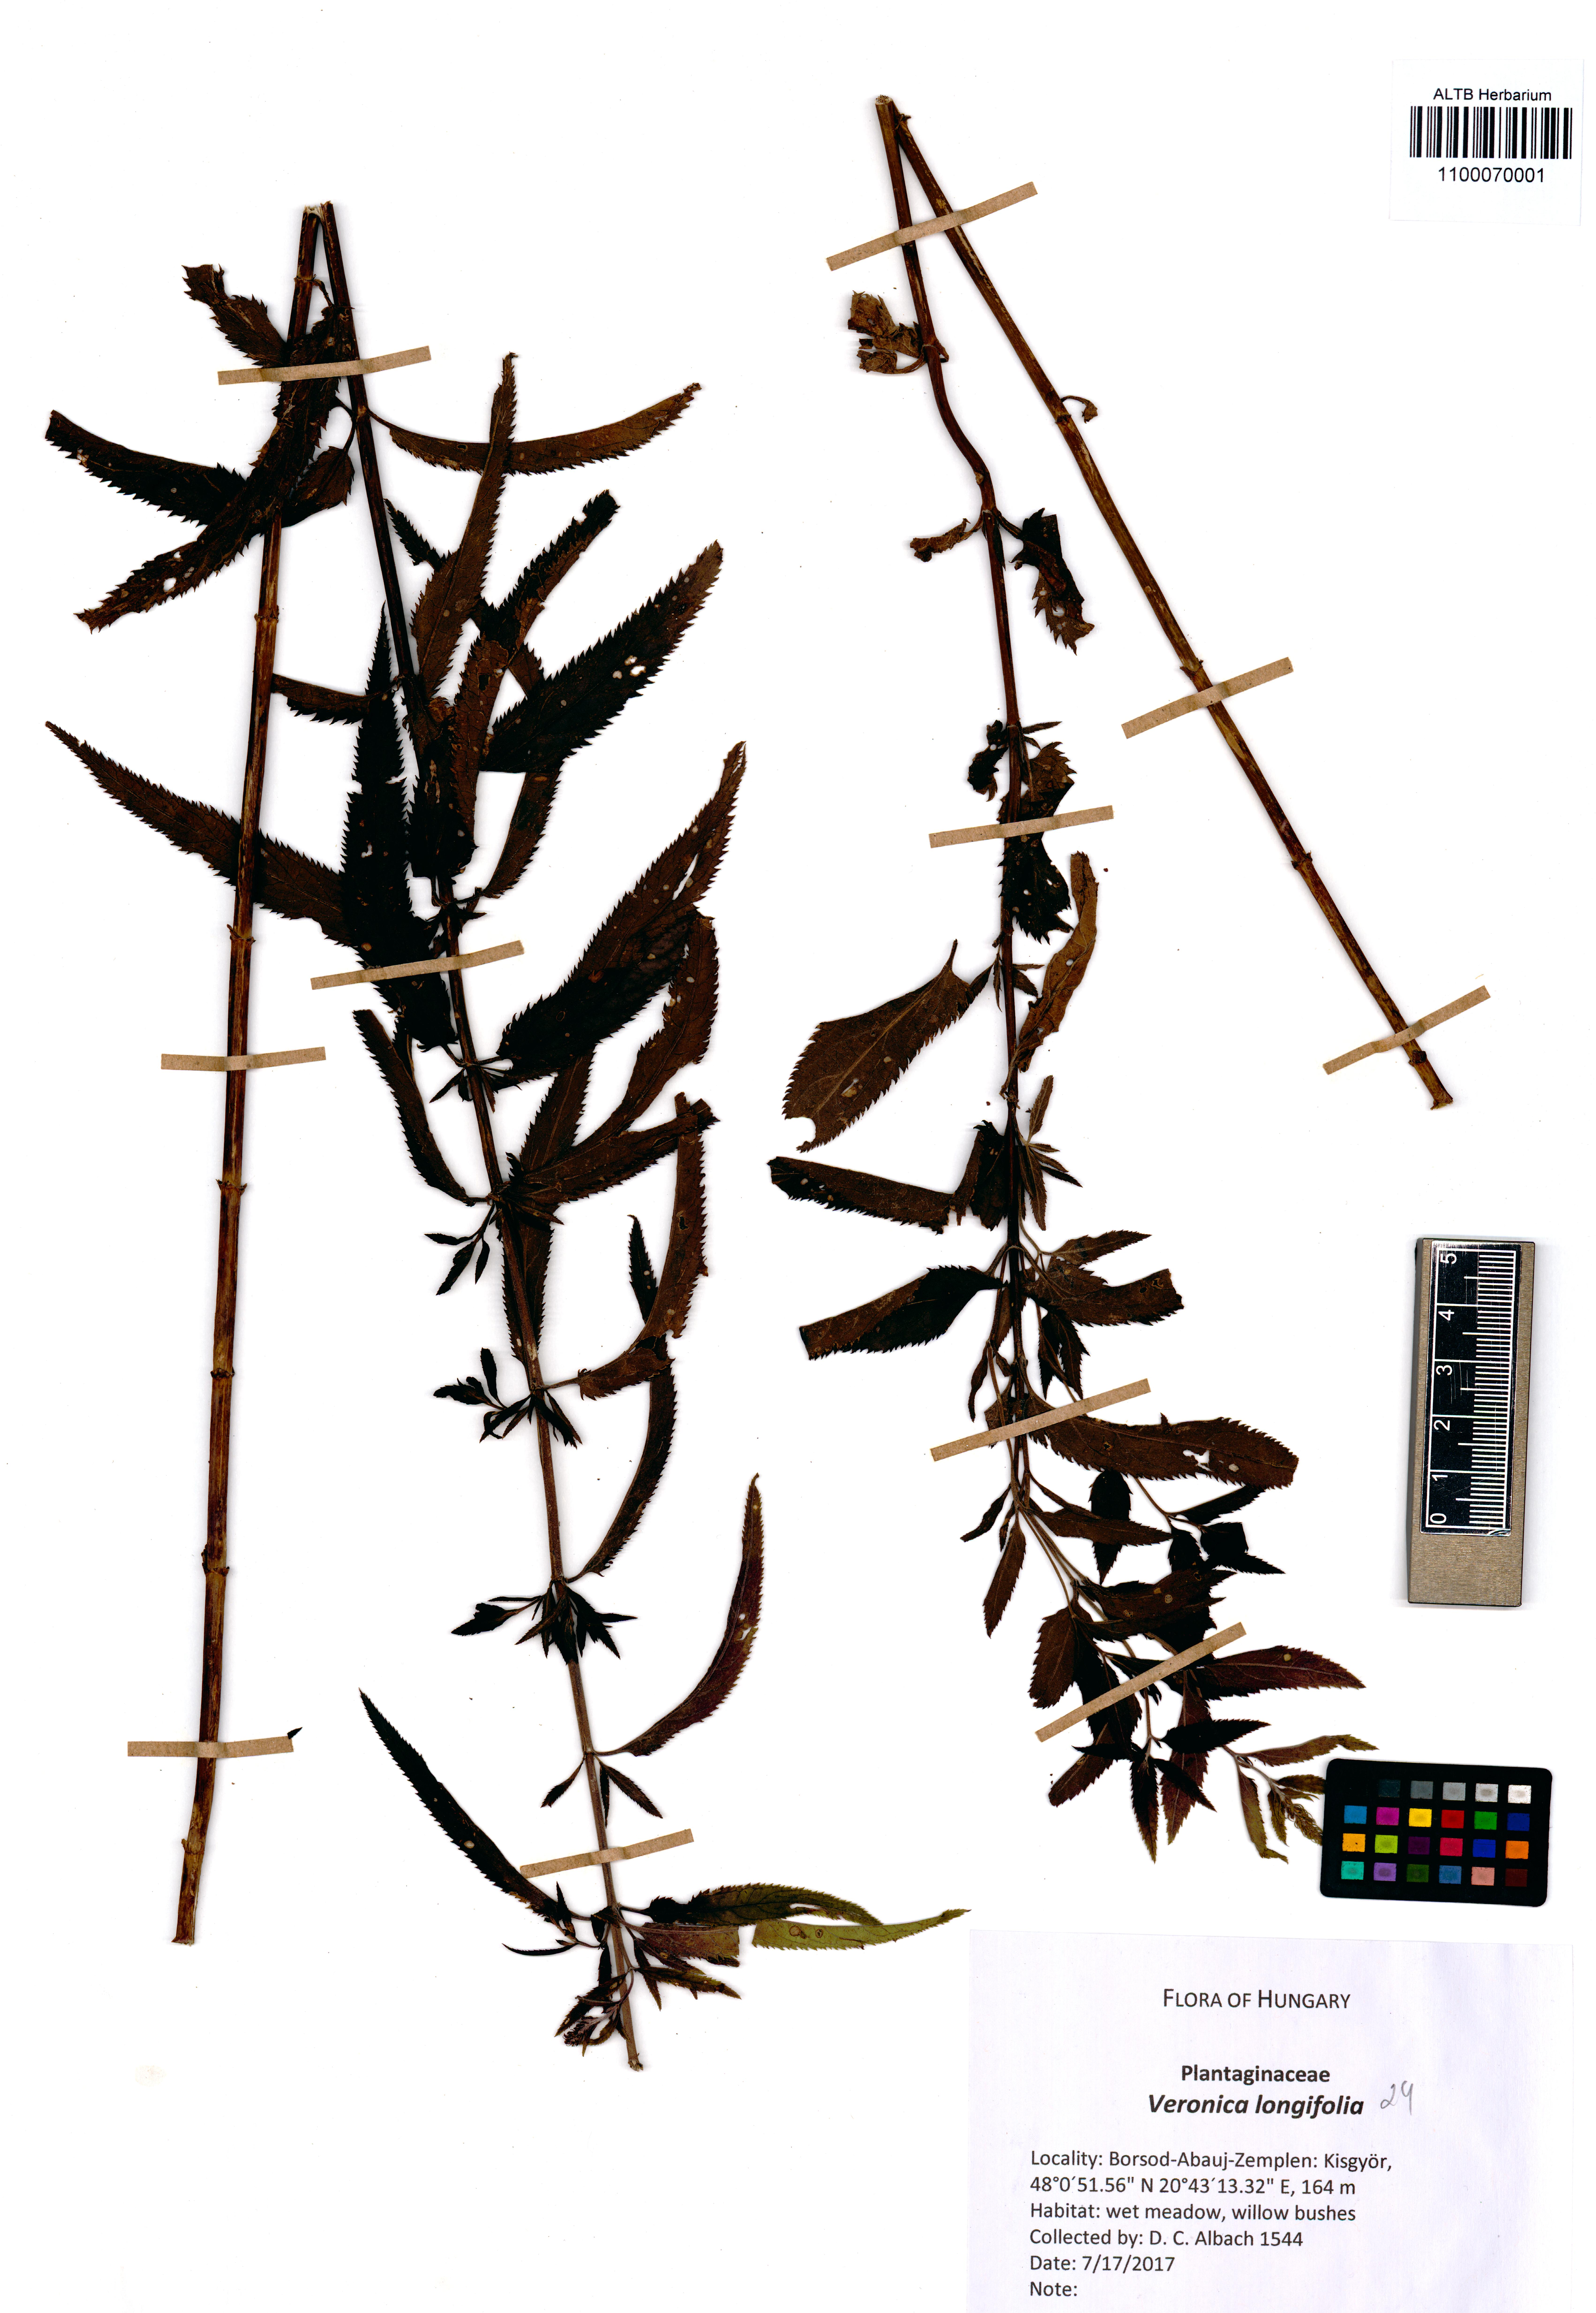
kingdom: Plantae
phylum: Tracheophyta
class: Magnoliopsida
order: Lamiales
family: Plantaginaceae
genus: Veronica
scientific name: Veronica longifolia
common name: Garden speedwell
